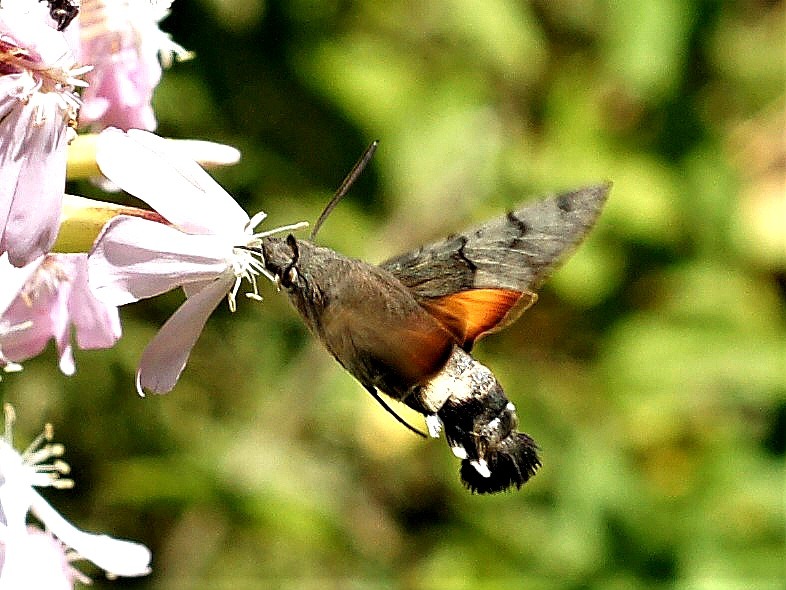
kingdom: Animalia
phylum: Arthropoda
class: Insecta
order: Lepidoptera
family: Sphingidae
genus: Macroglossum
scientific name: Macroglossum stellatarum
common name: Duehale
